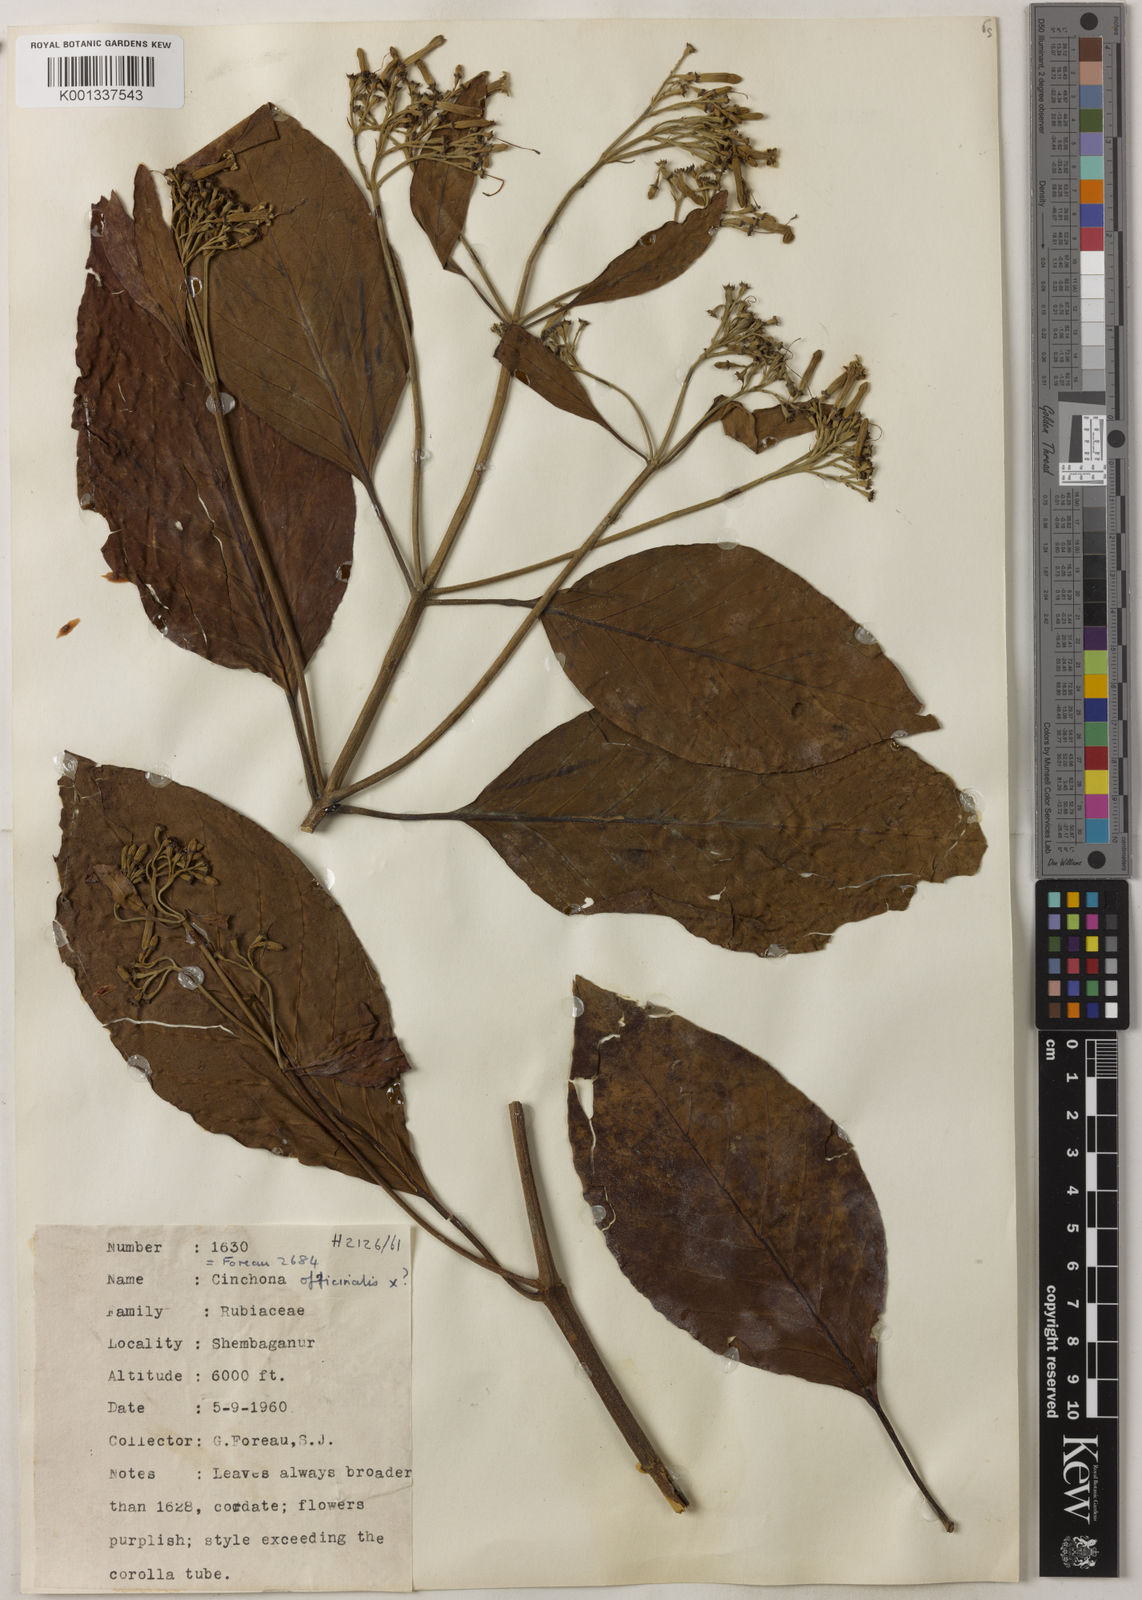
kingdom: Plantae
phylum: Tracheophyta
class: Magnoliopsida
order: Gentianales
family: Rubiaceae
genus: Cinchona
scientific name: Cinchona calisaya
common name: Ledgerbark
